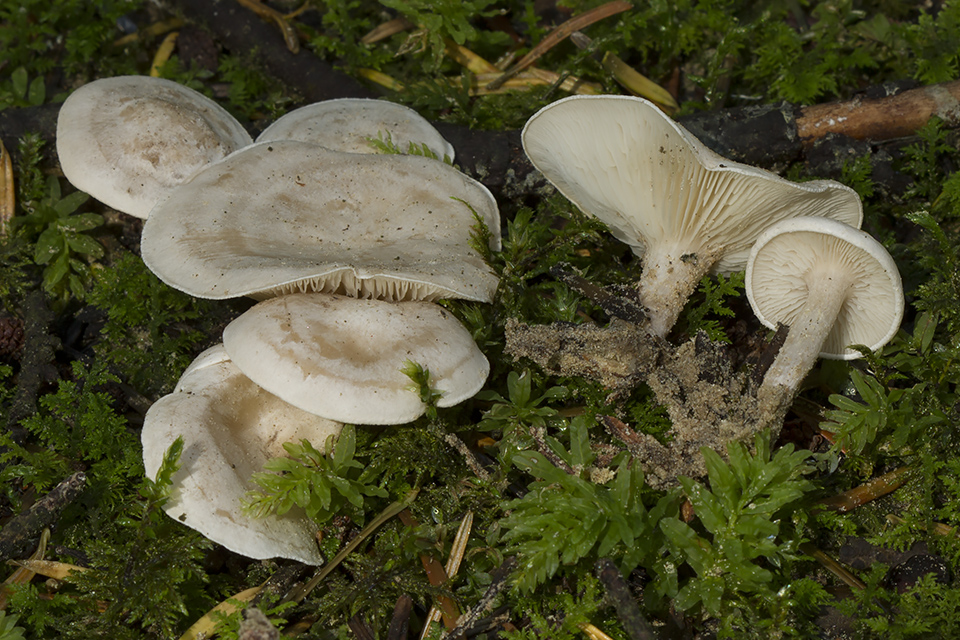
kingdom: Fungi
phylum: Basidiomycota
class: Agaricomycetes
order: Agaricales
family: Tricholomataceae
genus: Clitocybe
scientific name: Clitocybe rivulosa
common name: eng-tragthat
